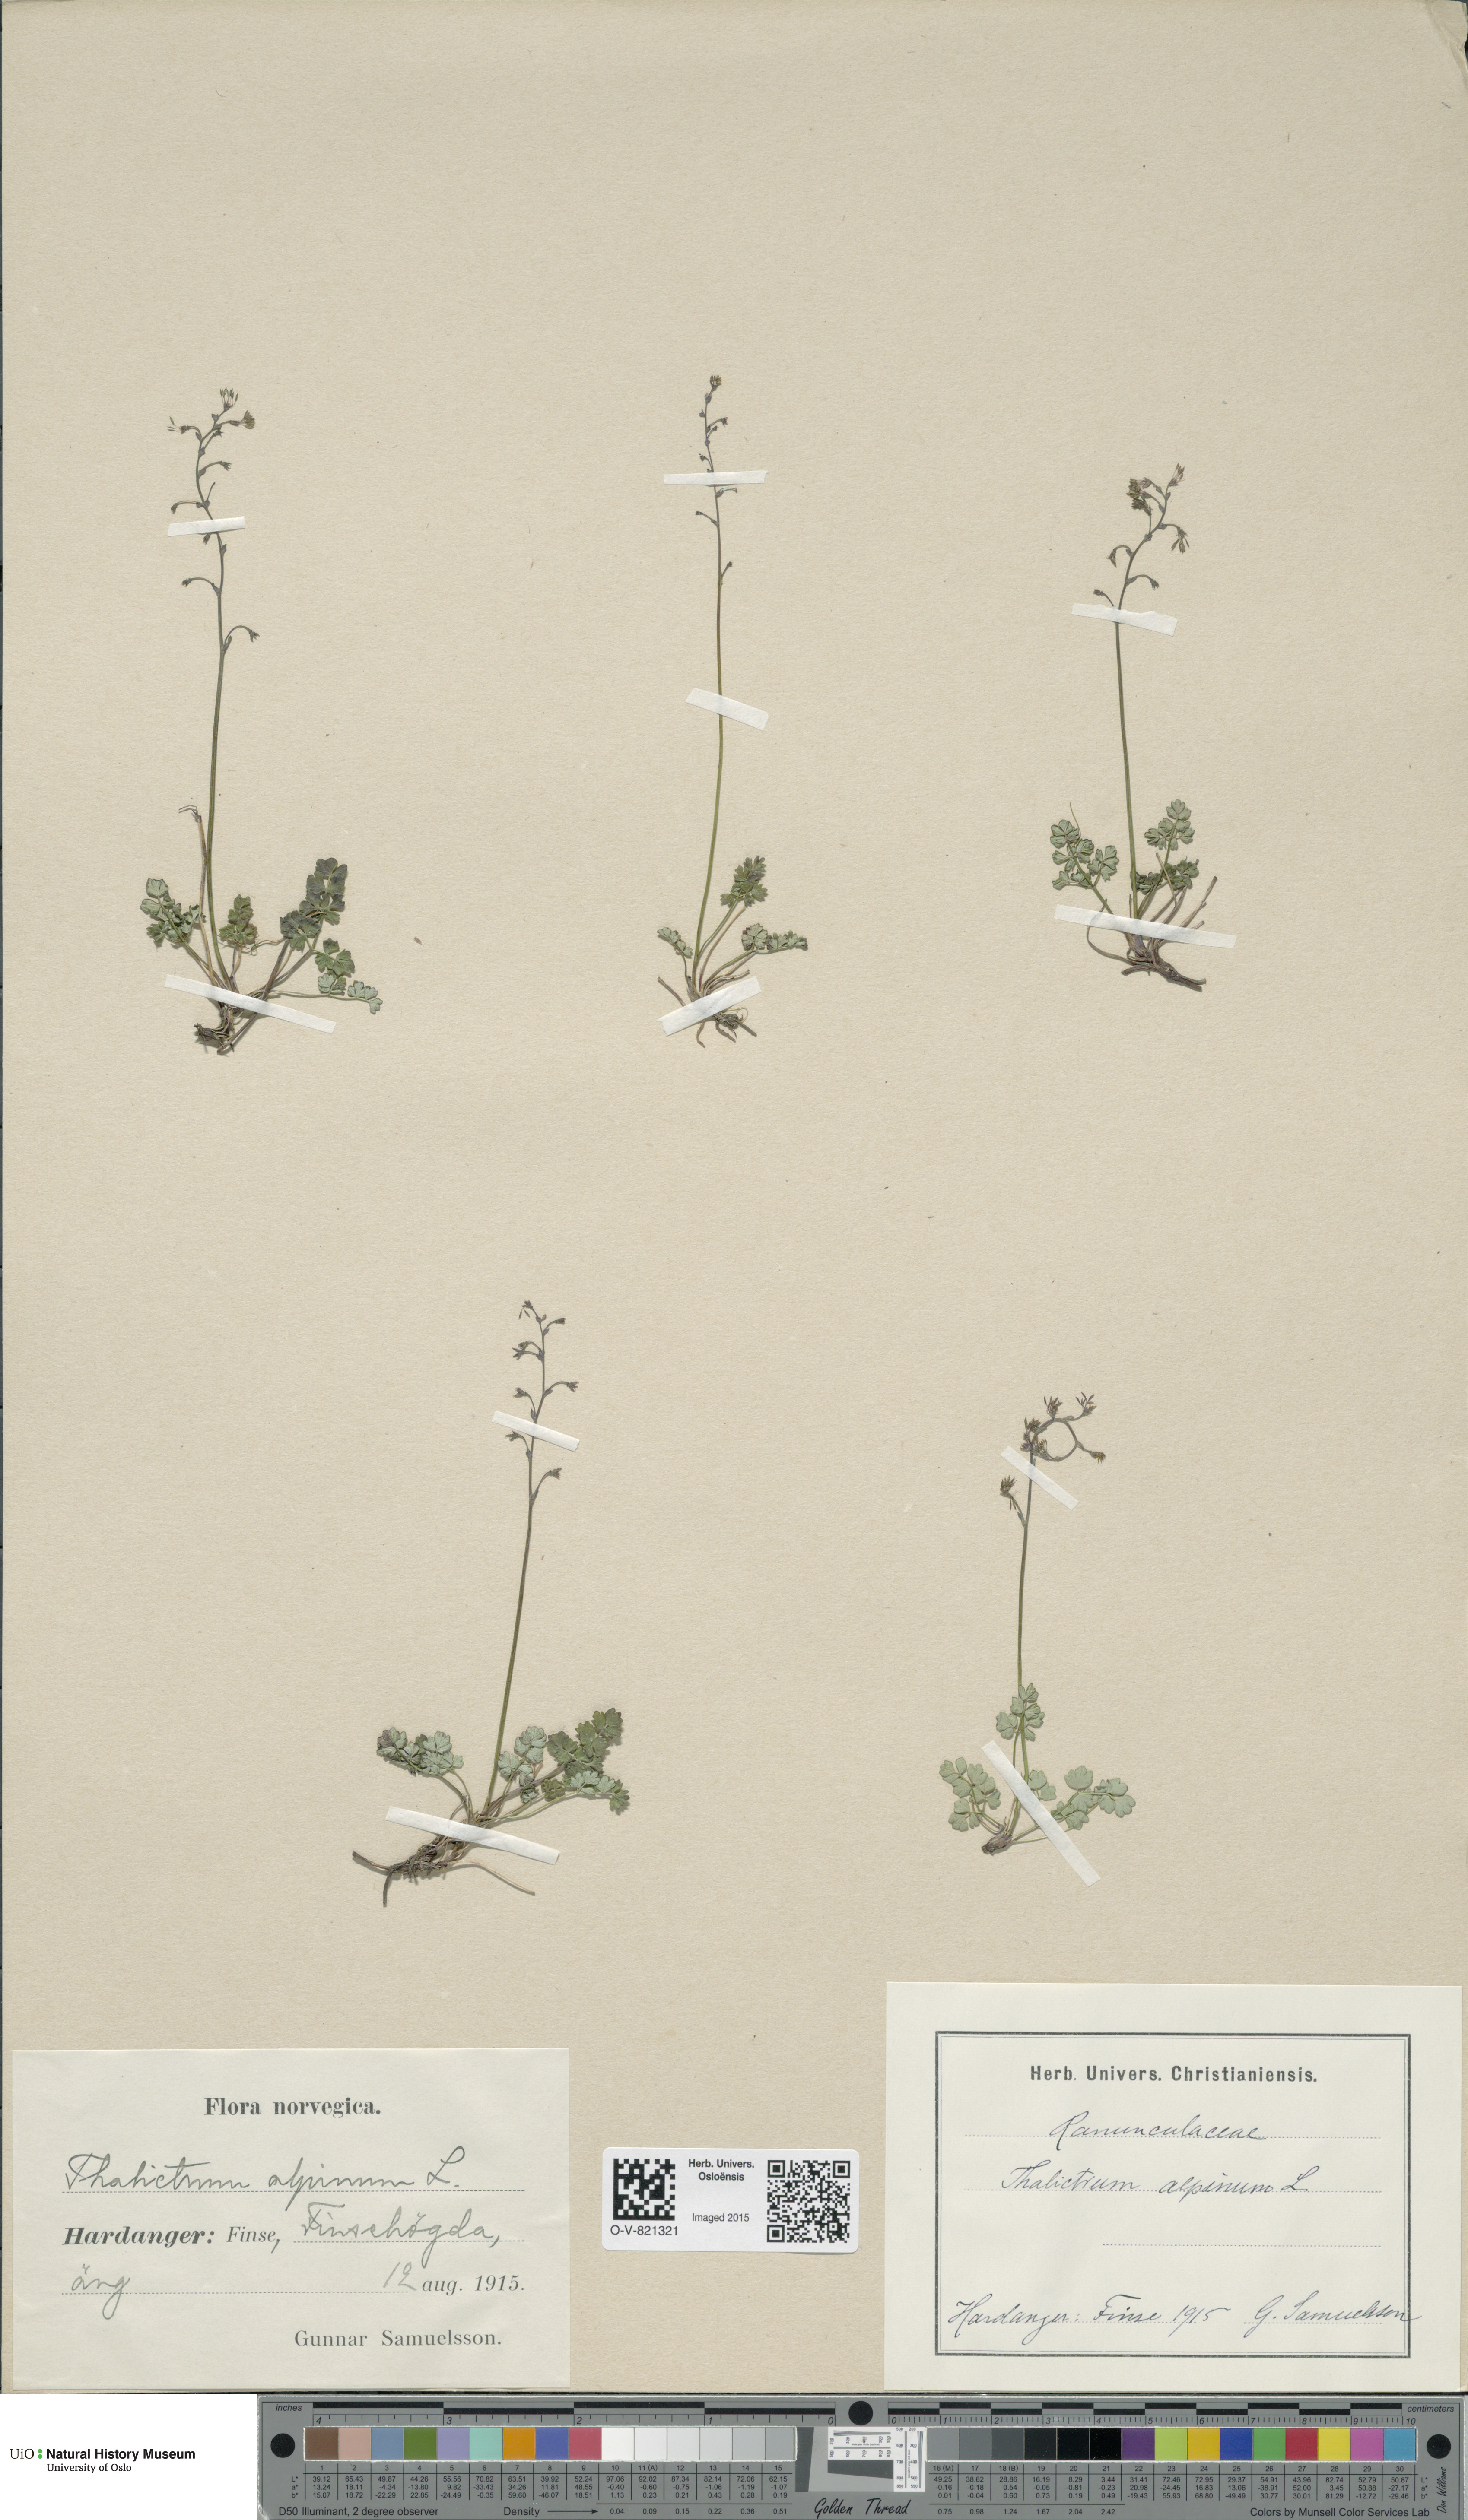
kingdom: Plantae
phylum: Tracheophyta
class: Magnoliopsida
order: Ranunculales
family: Ranunculaceae
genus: Thalictrum
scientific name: Thalictrum alpinum
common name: Alpine meadow-rue
